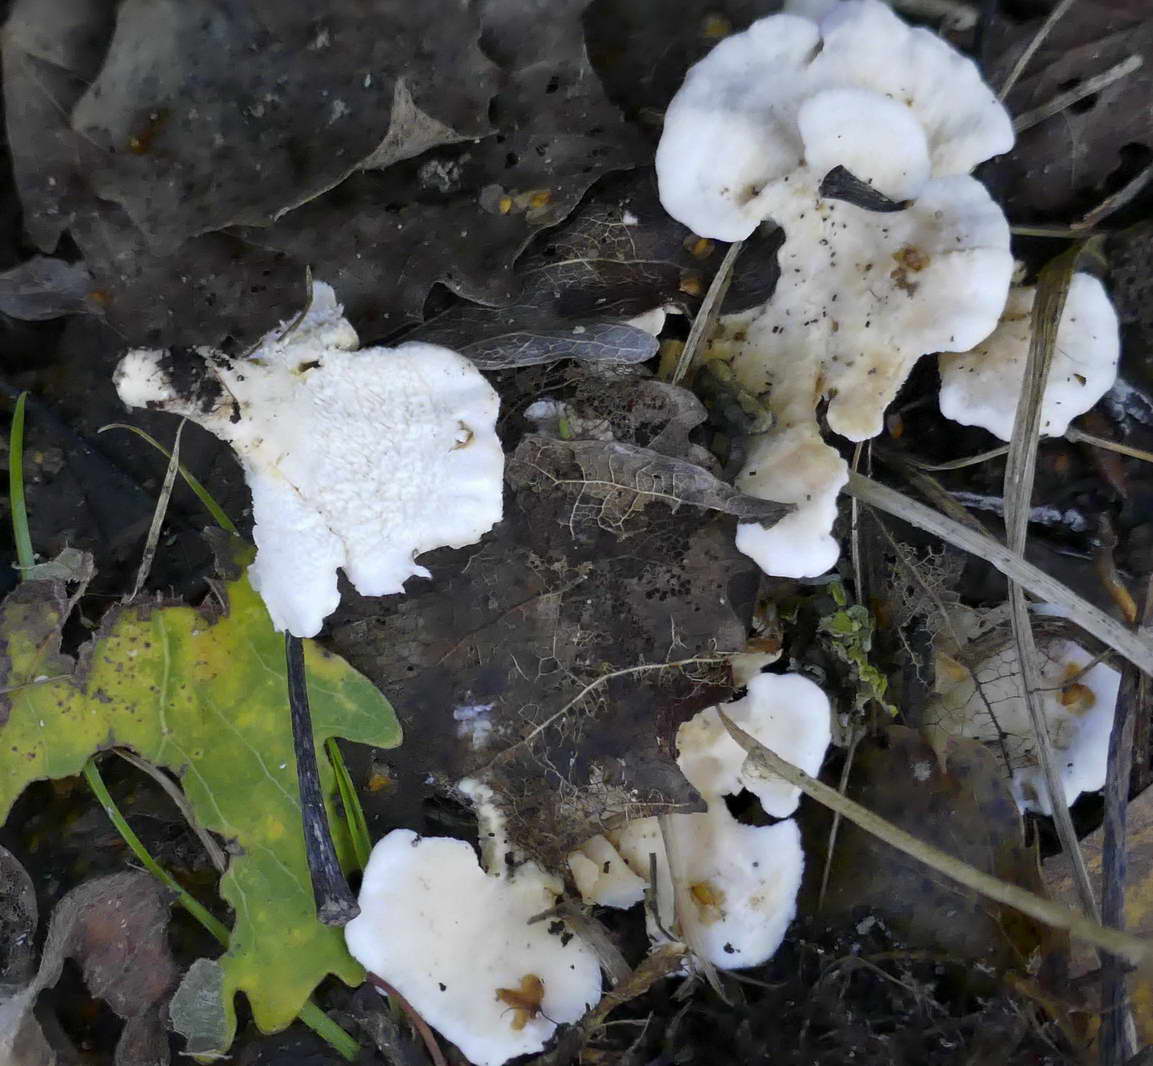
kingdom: Fungi
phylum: Basidiomycota
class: Agaricomycetes
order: Cantharellales
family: Hydnaceae
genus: Sistotrema
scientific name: Sistotrema confluens
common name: stilket kroneskorpe
